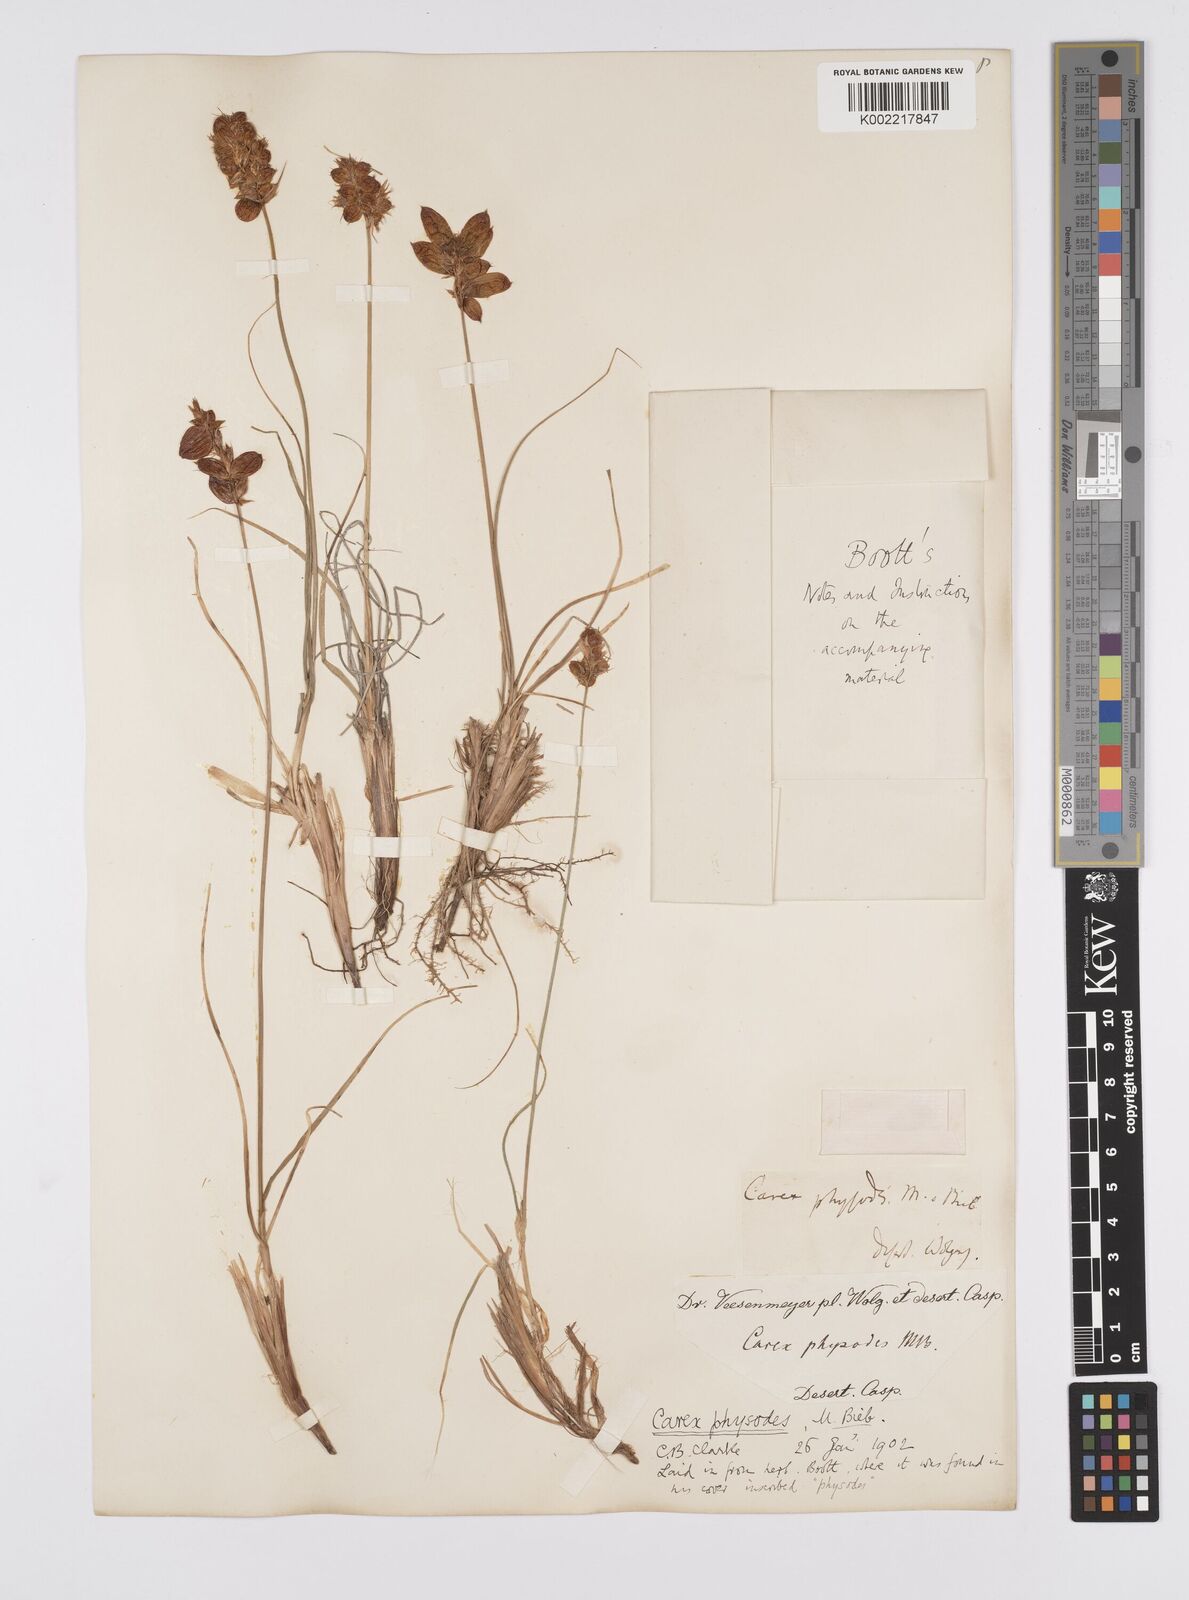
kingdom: Plantae
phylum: Tracheophyta
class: Liliopsida
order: Poales
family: Cyperaceae
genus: Carex
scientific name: Carex physodes
